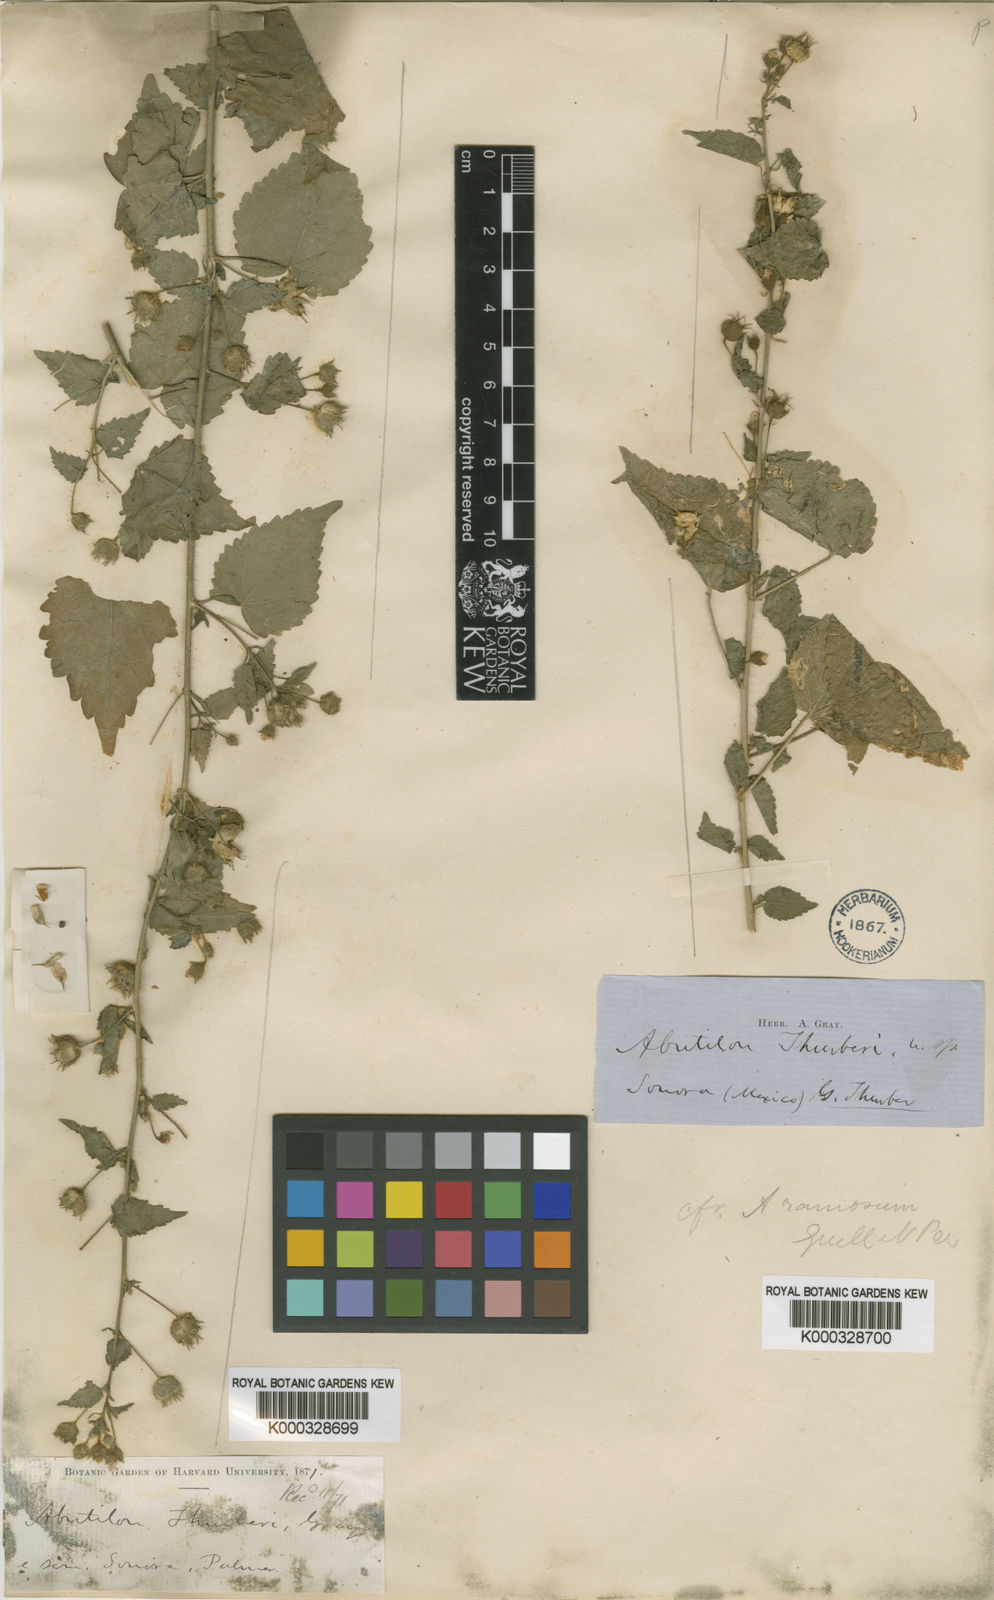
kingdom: Plantae
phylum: Tracheophyta
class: Magnoliopsida
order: Malvales
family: Malvaceae
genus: Pseudabutilon
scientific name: Pseudabutilon thurberi
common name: Thurber's indian mallow
